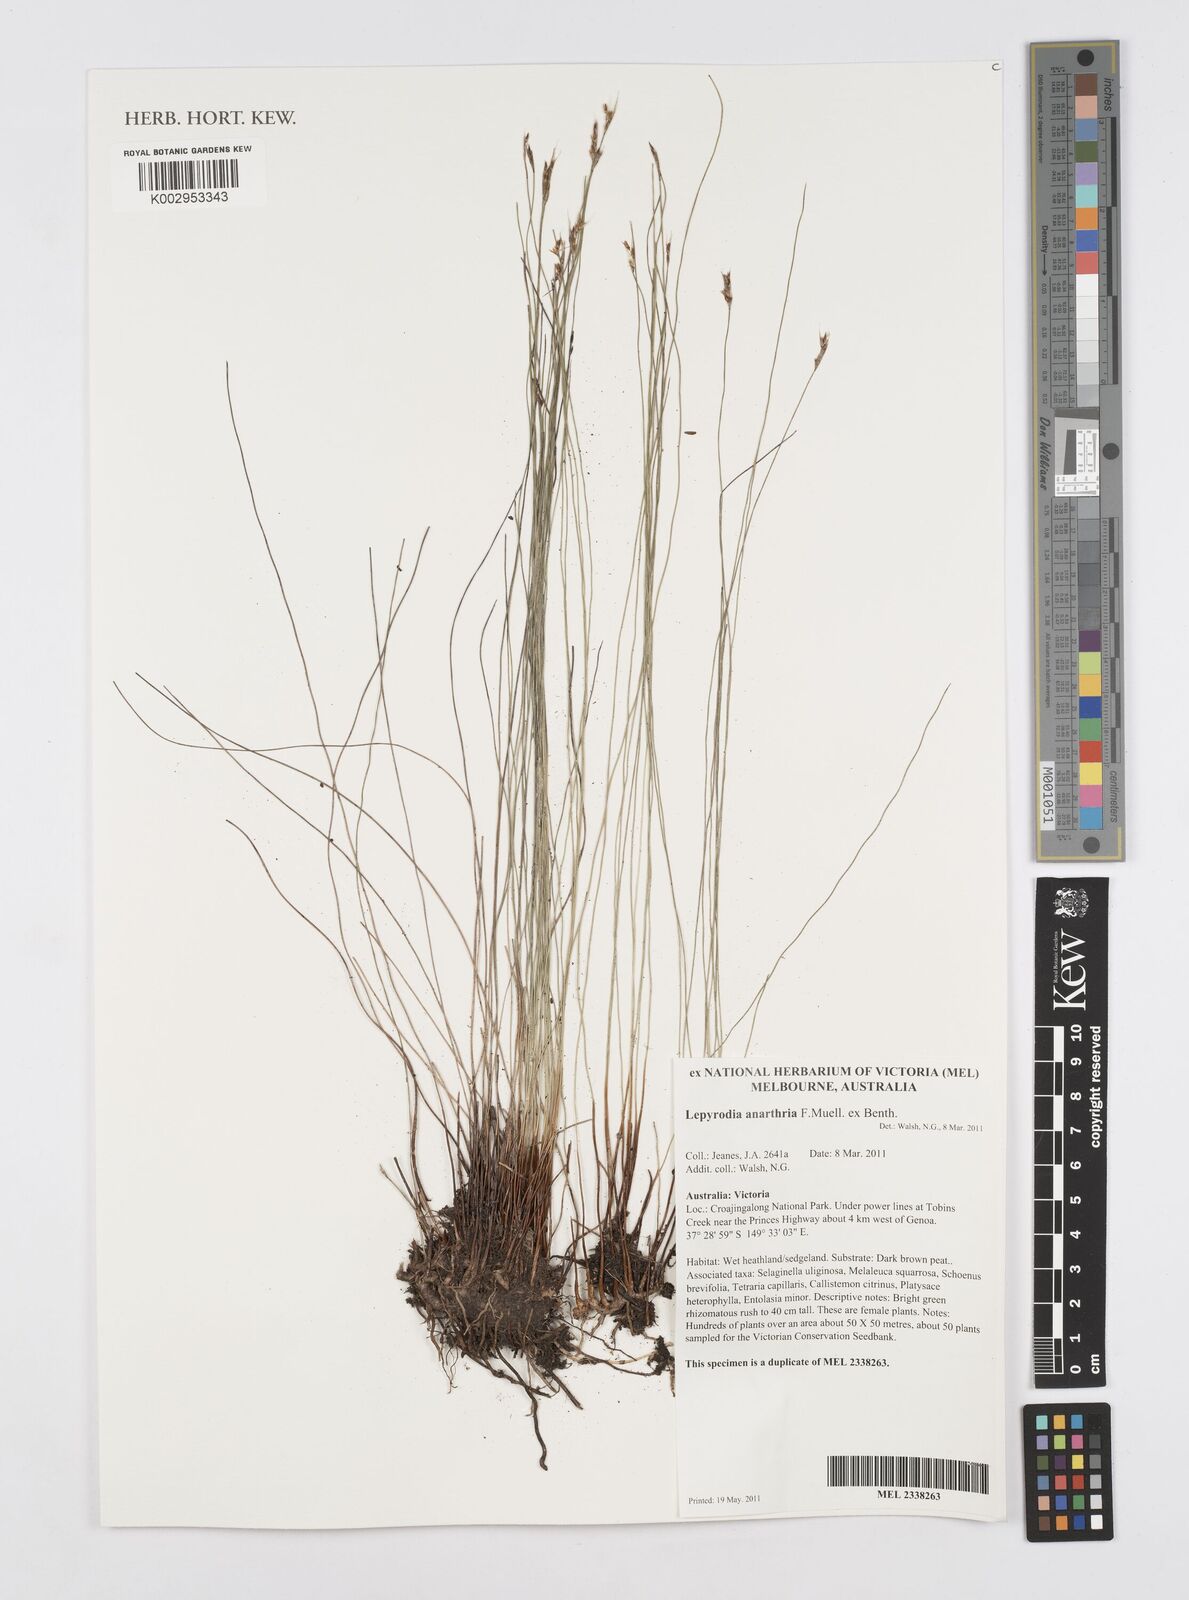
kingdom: Plantae
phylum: Tracheophyta
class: Liliopsida
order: Poales
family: Restionaceae
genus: Lepyrodia
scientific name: Lepyrodia anarthria
